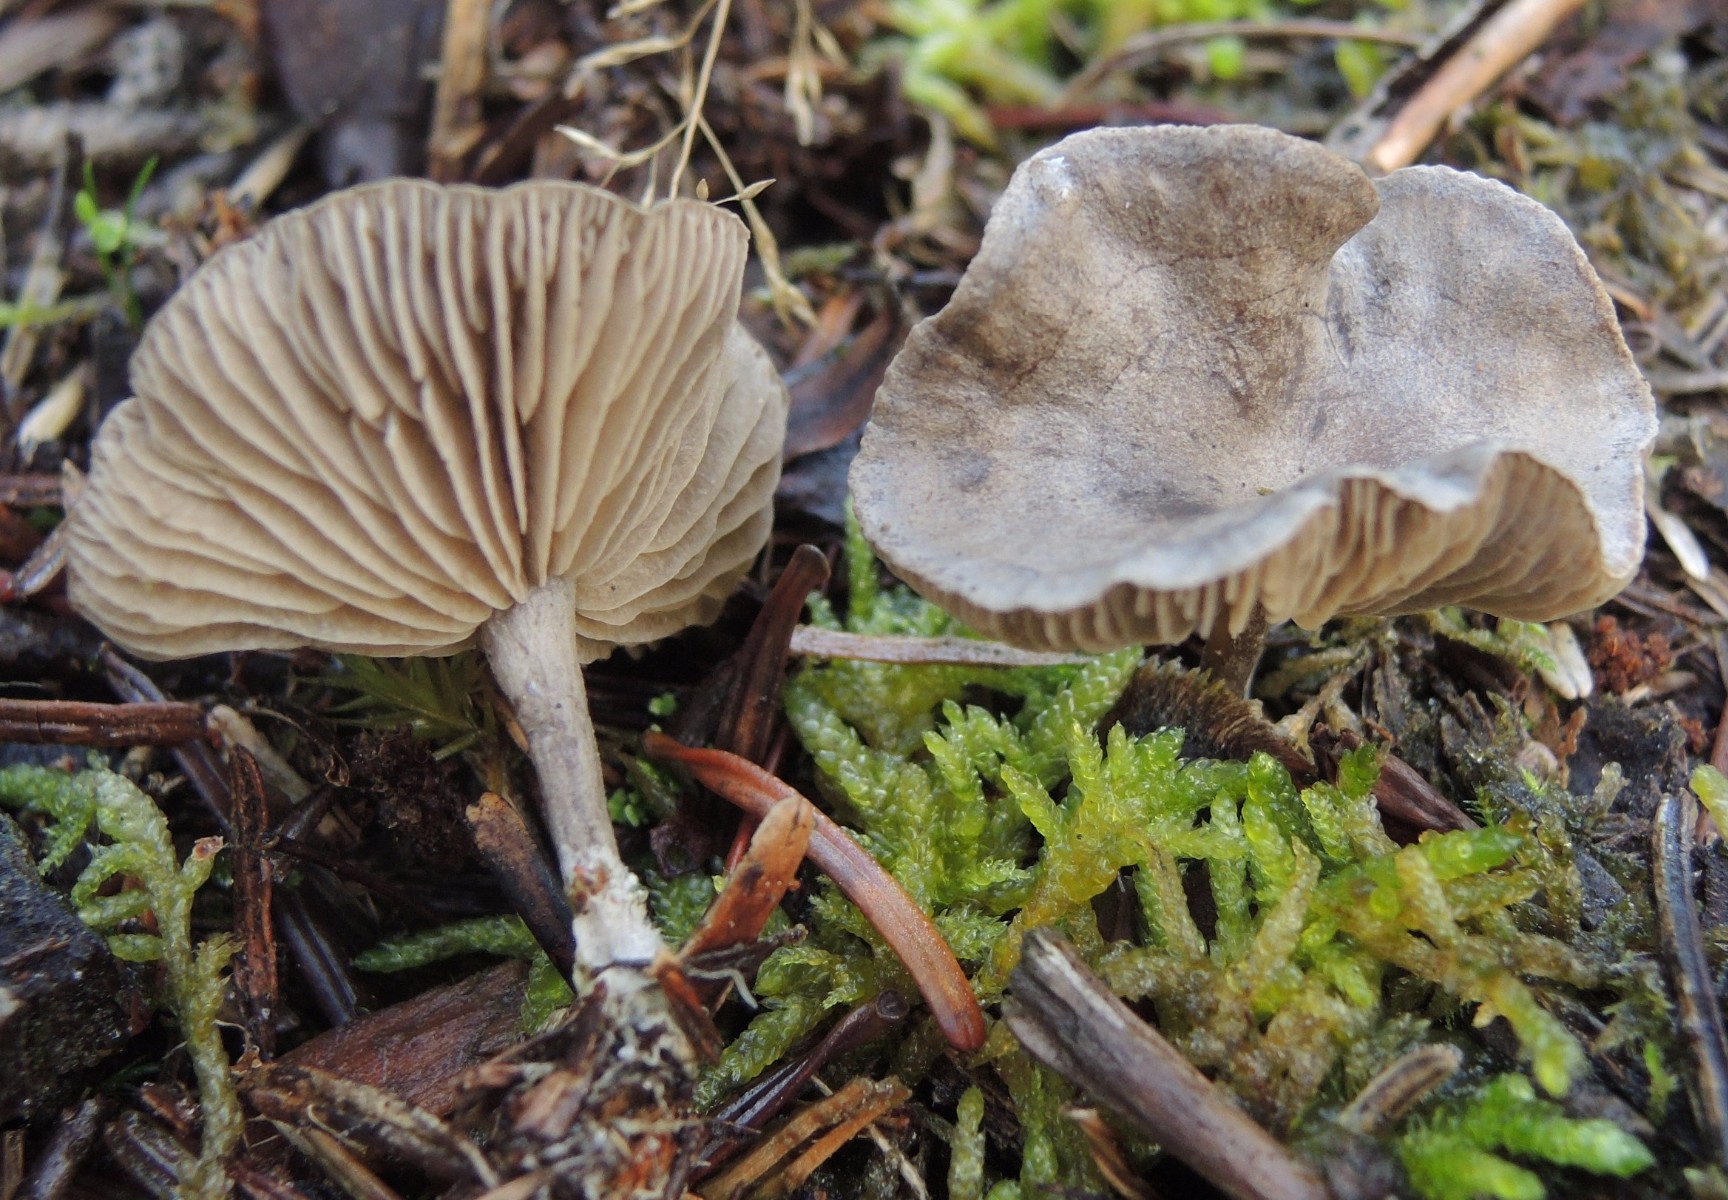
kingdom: Fungi
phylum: Basidiomycota
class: Agaricomycetes
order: Agaricales
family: Entolomataceae
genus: Clitopilus
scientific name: Clitopilus caelatus
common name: gråbrun troldhat
